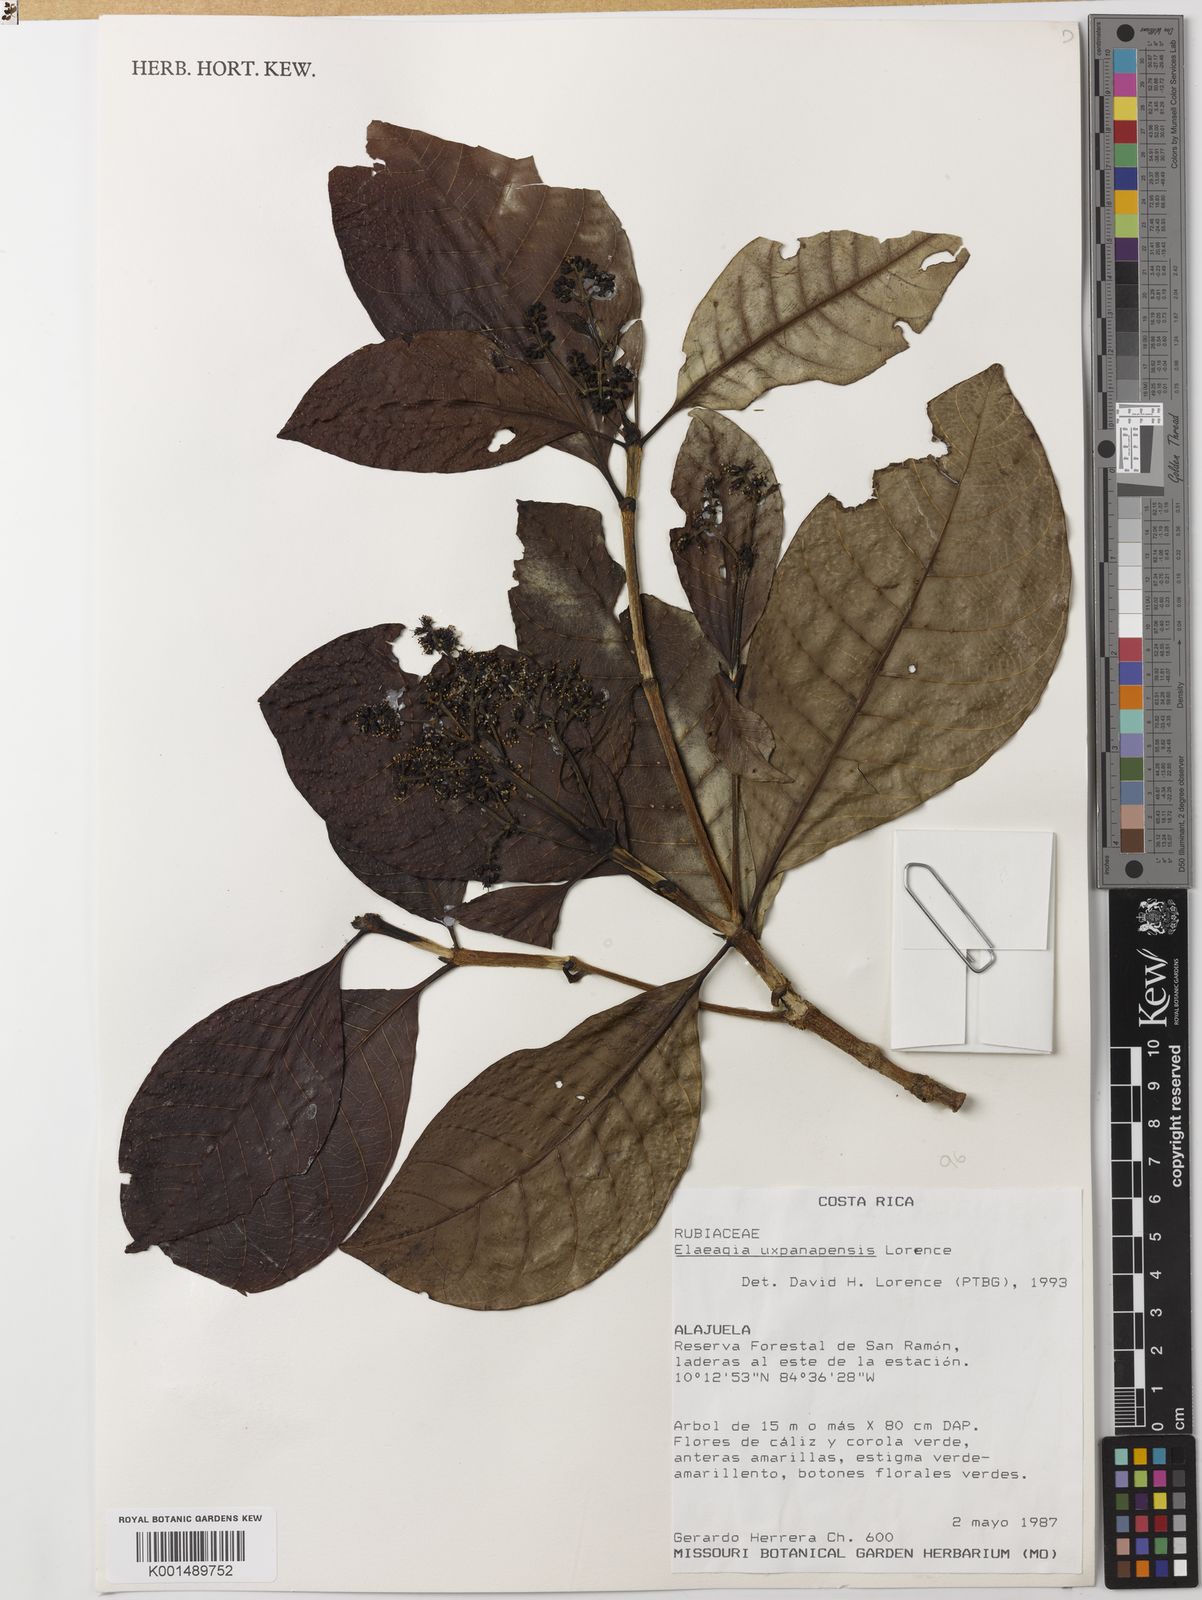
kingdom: Plantae
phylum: Tracheophyta
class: Magnoliopsida
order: Gentianales
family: Rubiaceae
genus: Warszewiczia
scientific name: Warszewiczia uxpanapensis
